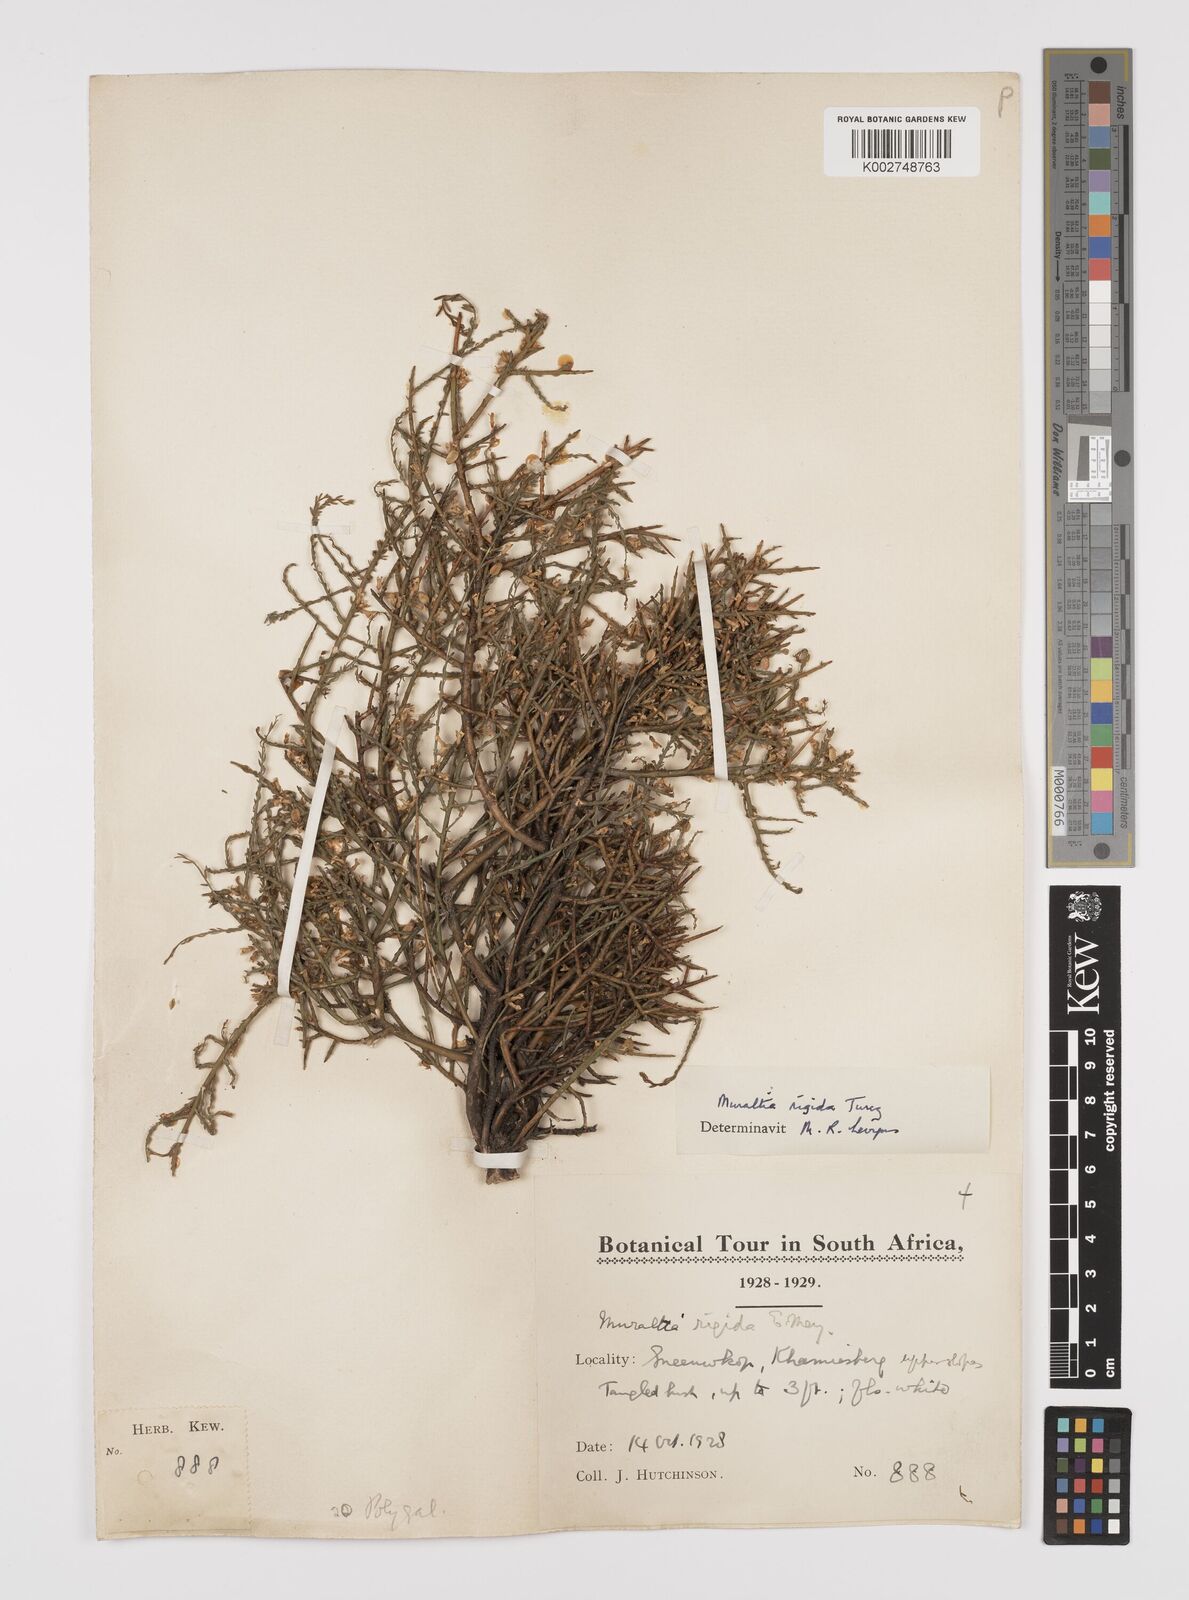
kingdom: Plantae
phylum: Tracheophyta
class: Magnoliopsida
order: Fabales
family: Polygalaceae
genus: Muraltia
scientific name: Muraltia rigida
